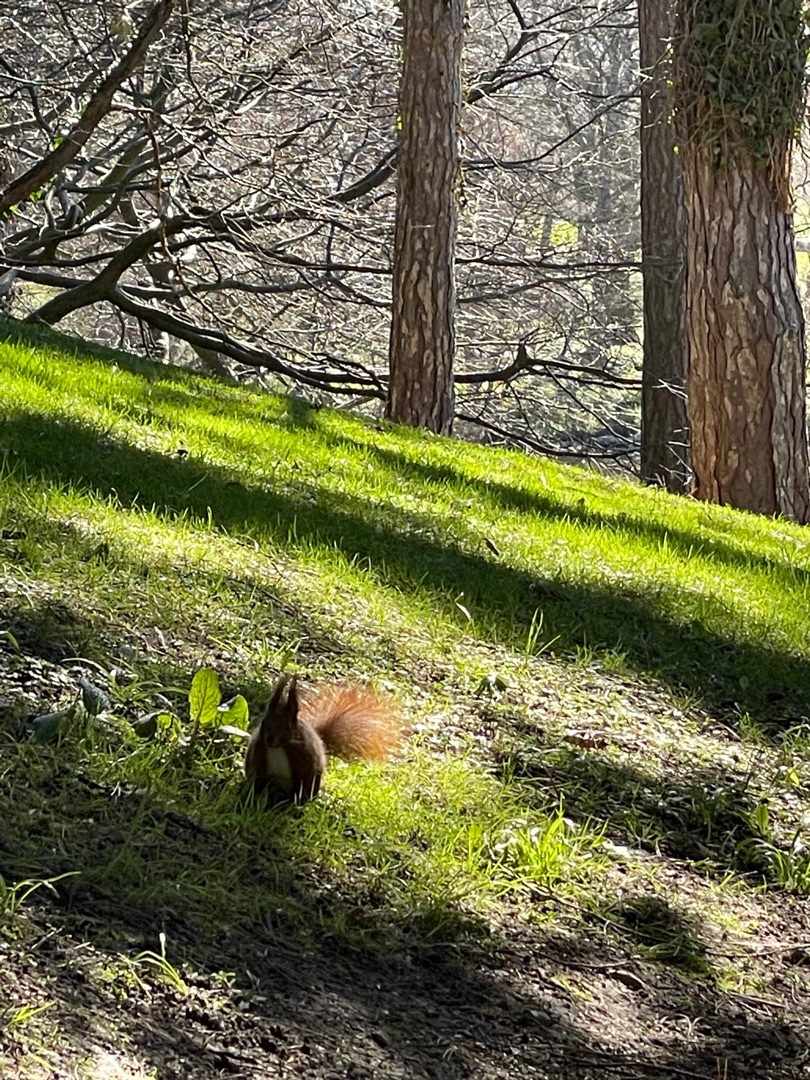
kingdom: Animalia
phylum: Chordata
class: Mammalia
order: Rodentia
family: Sciuridae
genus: Sciurus
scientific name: Sciurus vulgaris
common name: Egern
